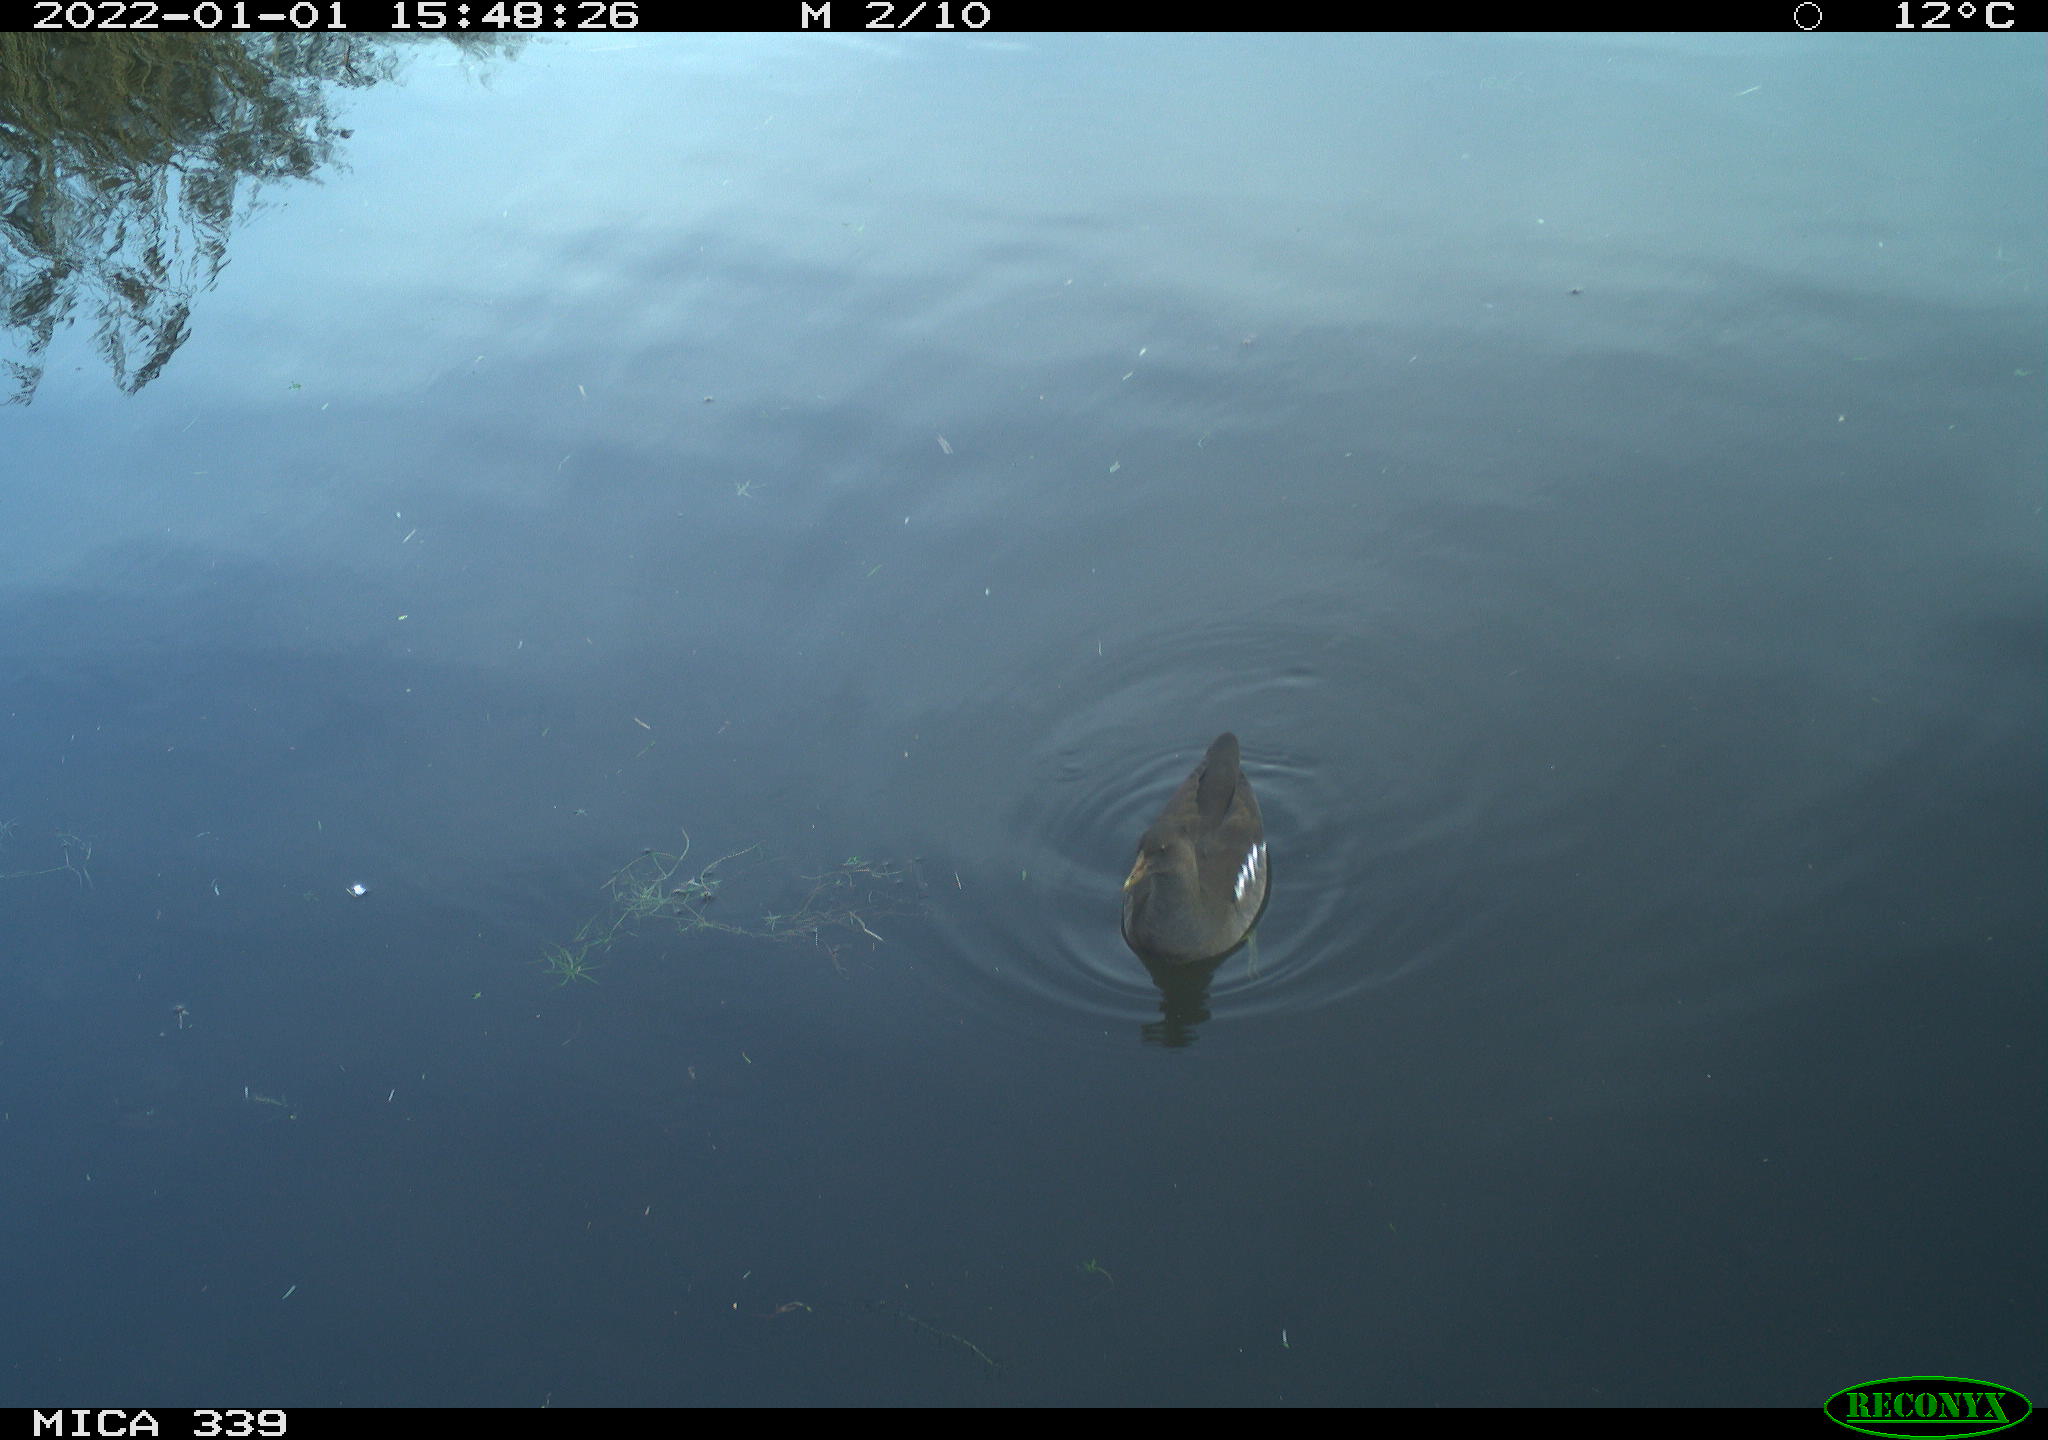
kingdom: Animalia
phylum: Chordata
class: Aves
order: Gruiformes
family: Rallidae
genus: Gallinula
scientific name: Gallinula chloropus
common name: Common moorhen
